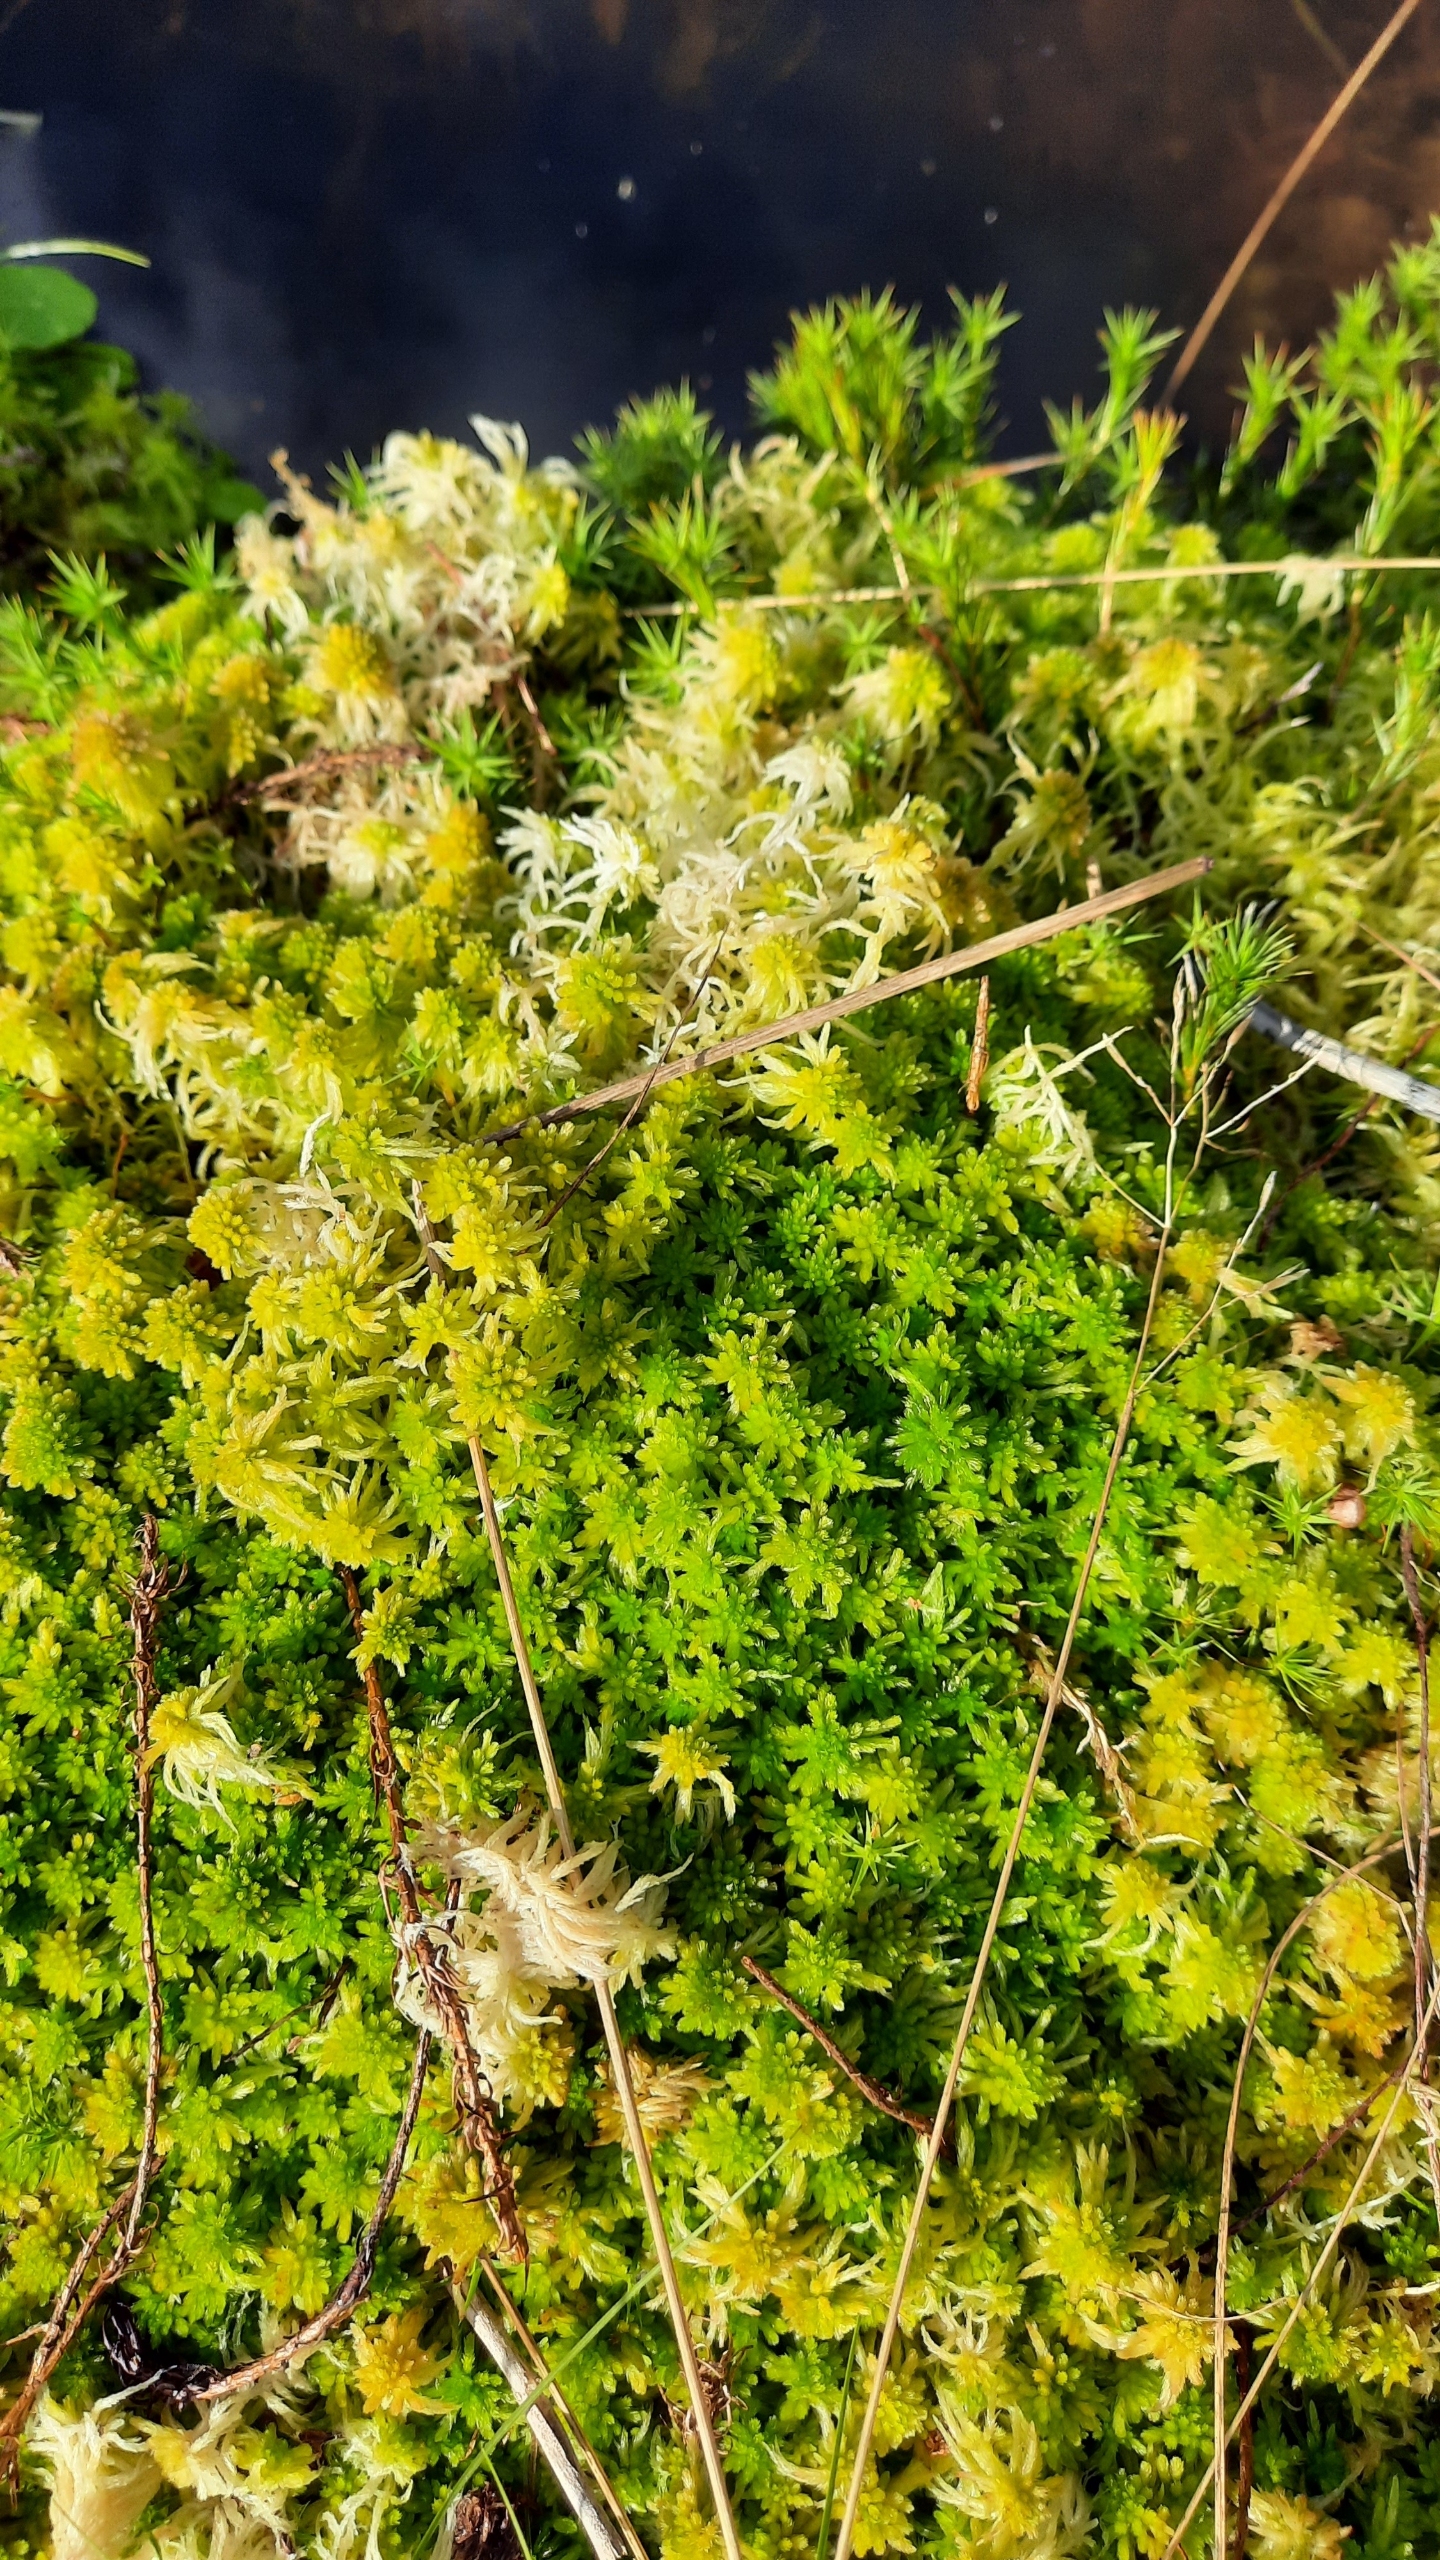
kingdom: Plantae
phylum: Bryophyta
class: Sphagnopsida
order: Sphagnales
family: Sphagnaceae
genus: Sphagnum
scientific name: Sphagnum
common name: Tørvemosslægten
